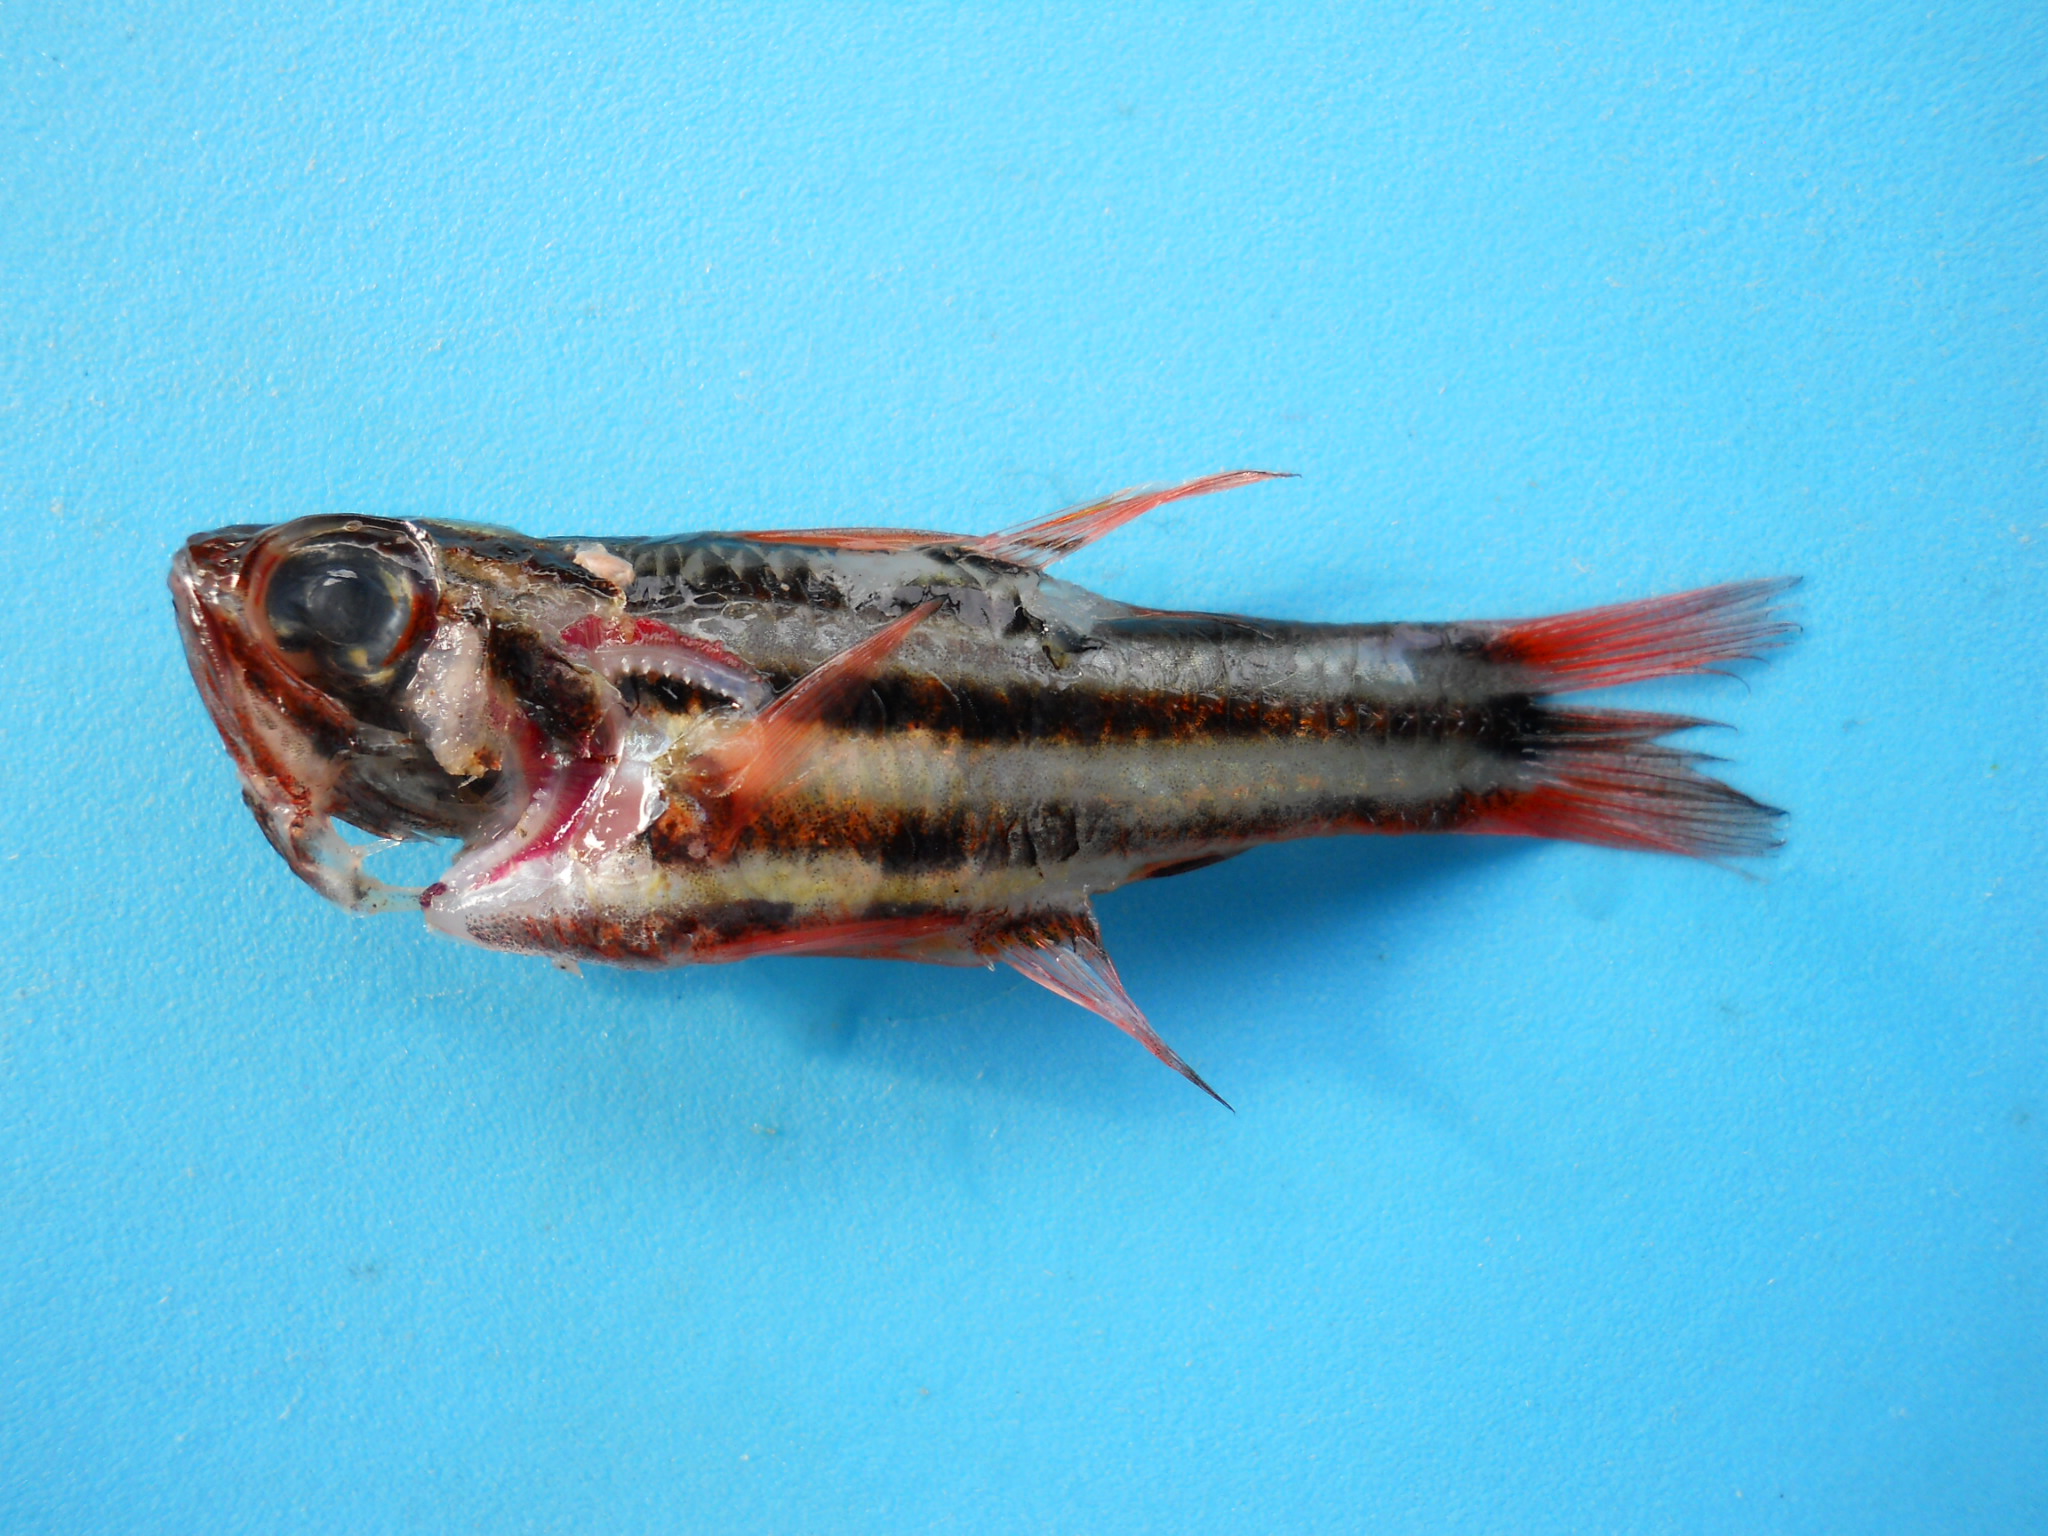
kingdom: Animalia
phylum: Chordata
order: Perciformes
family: Apogonidae
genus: Ostorhinchus
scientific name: Ostorhinchus angustatus
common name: Narrow-striped cardinalfish
